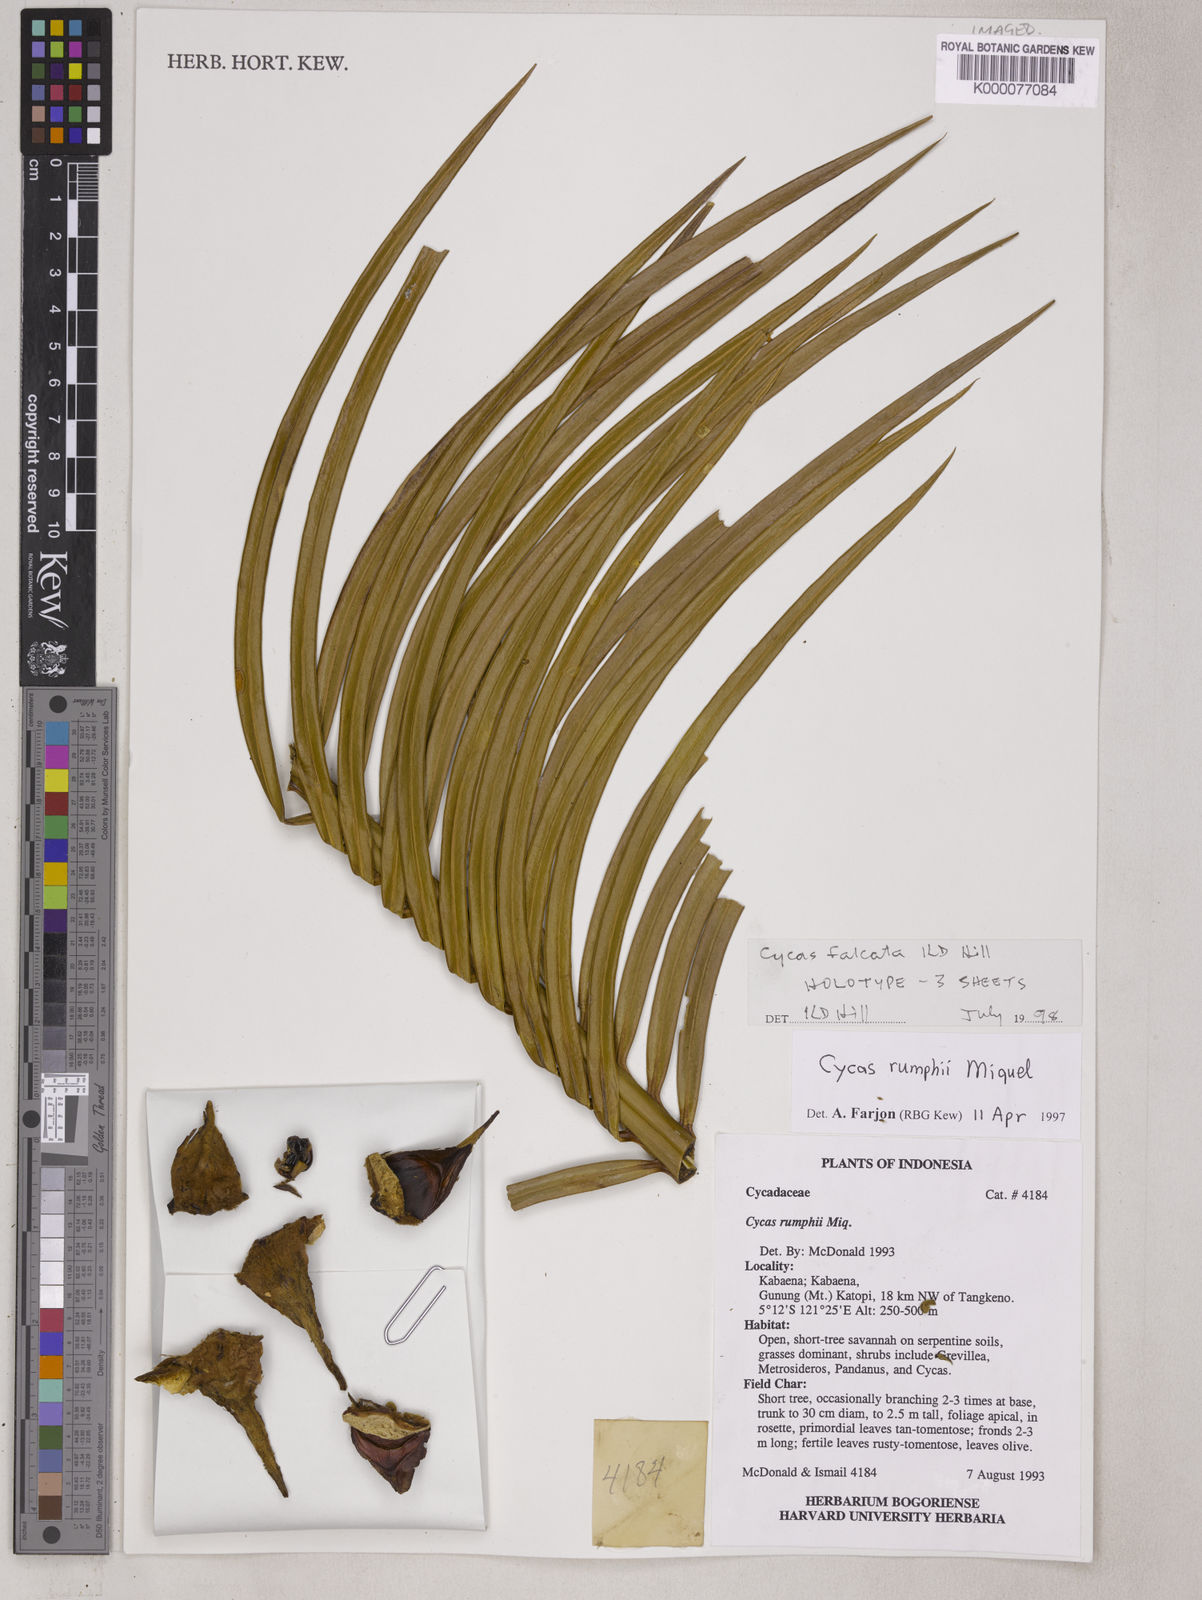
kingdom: Plantae
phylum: Tracheophyta
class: Cycadopsida
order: Cycadales
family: Cycadaceae
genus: Cycas
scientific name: Cycas falcata
